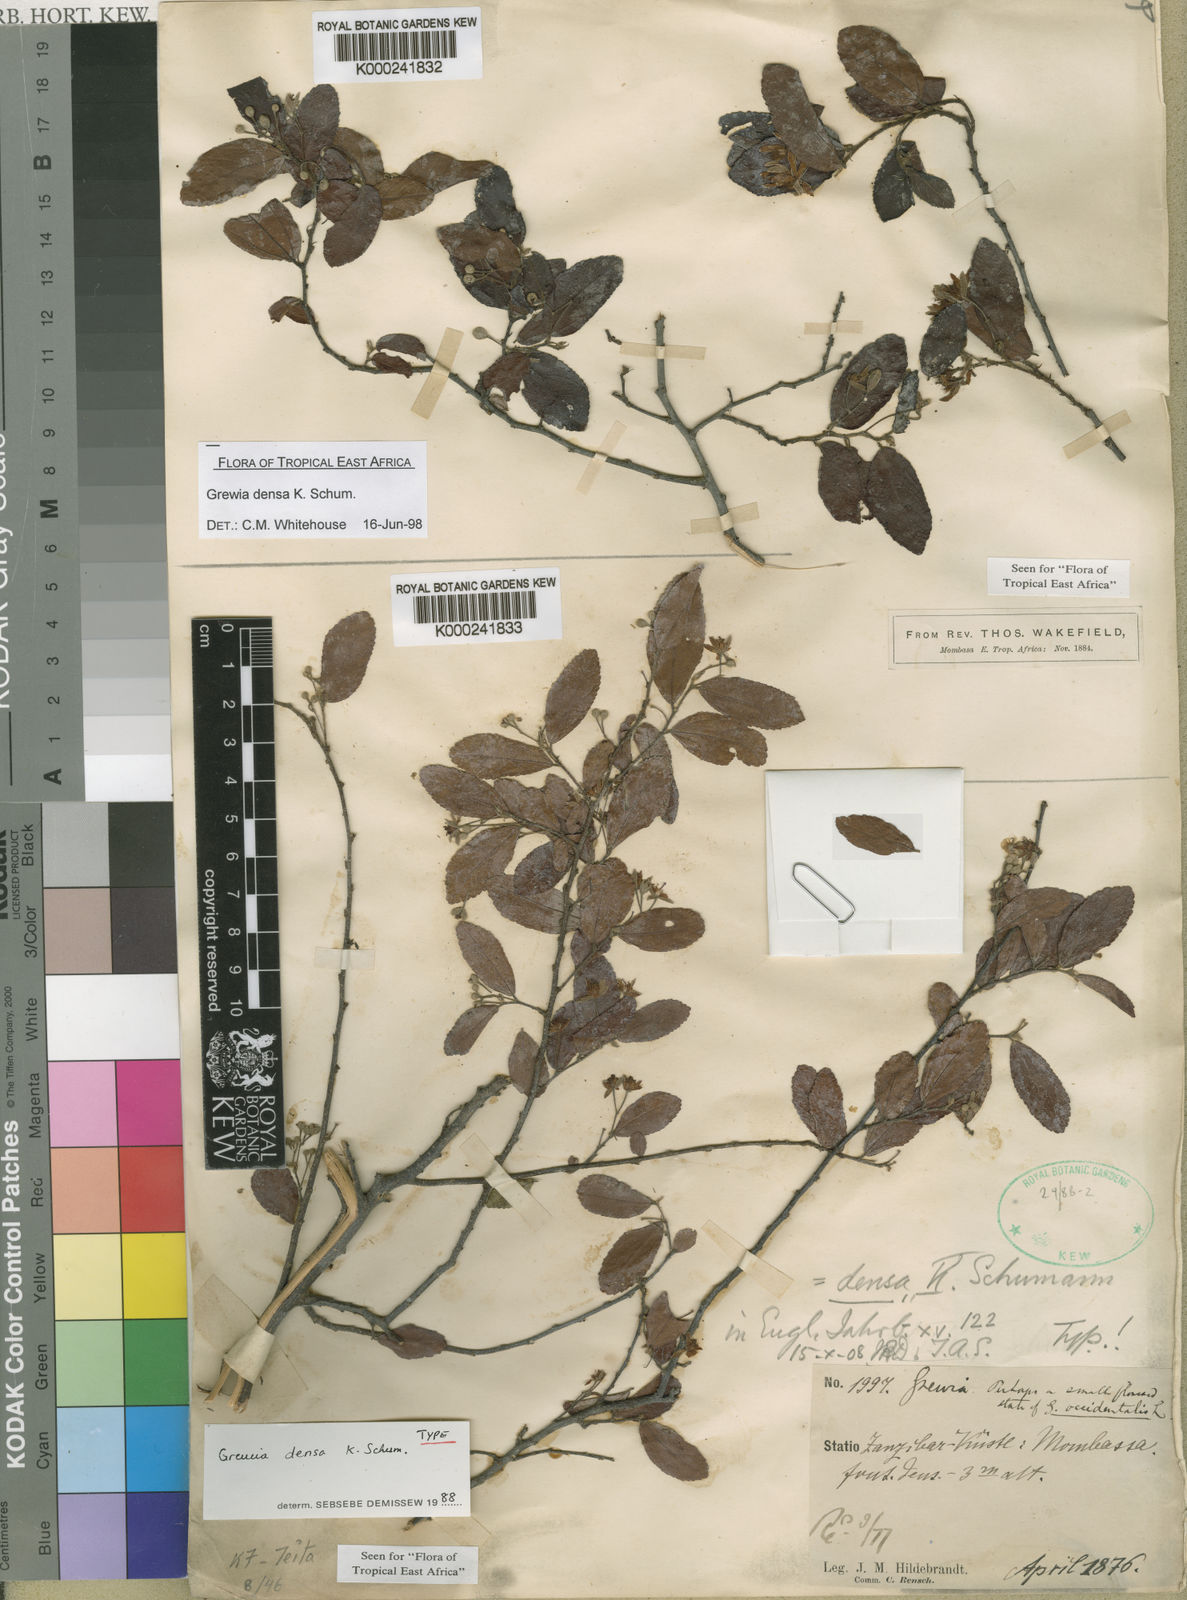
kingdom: Plantae
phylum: Tracheophyta
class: Magnoliopsida
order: Malvales
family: Malvaceae
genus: Grewia
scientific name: Grewia densa
